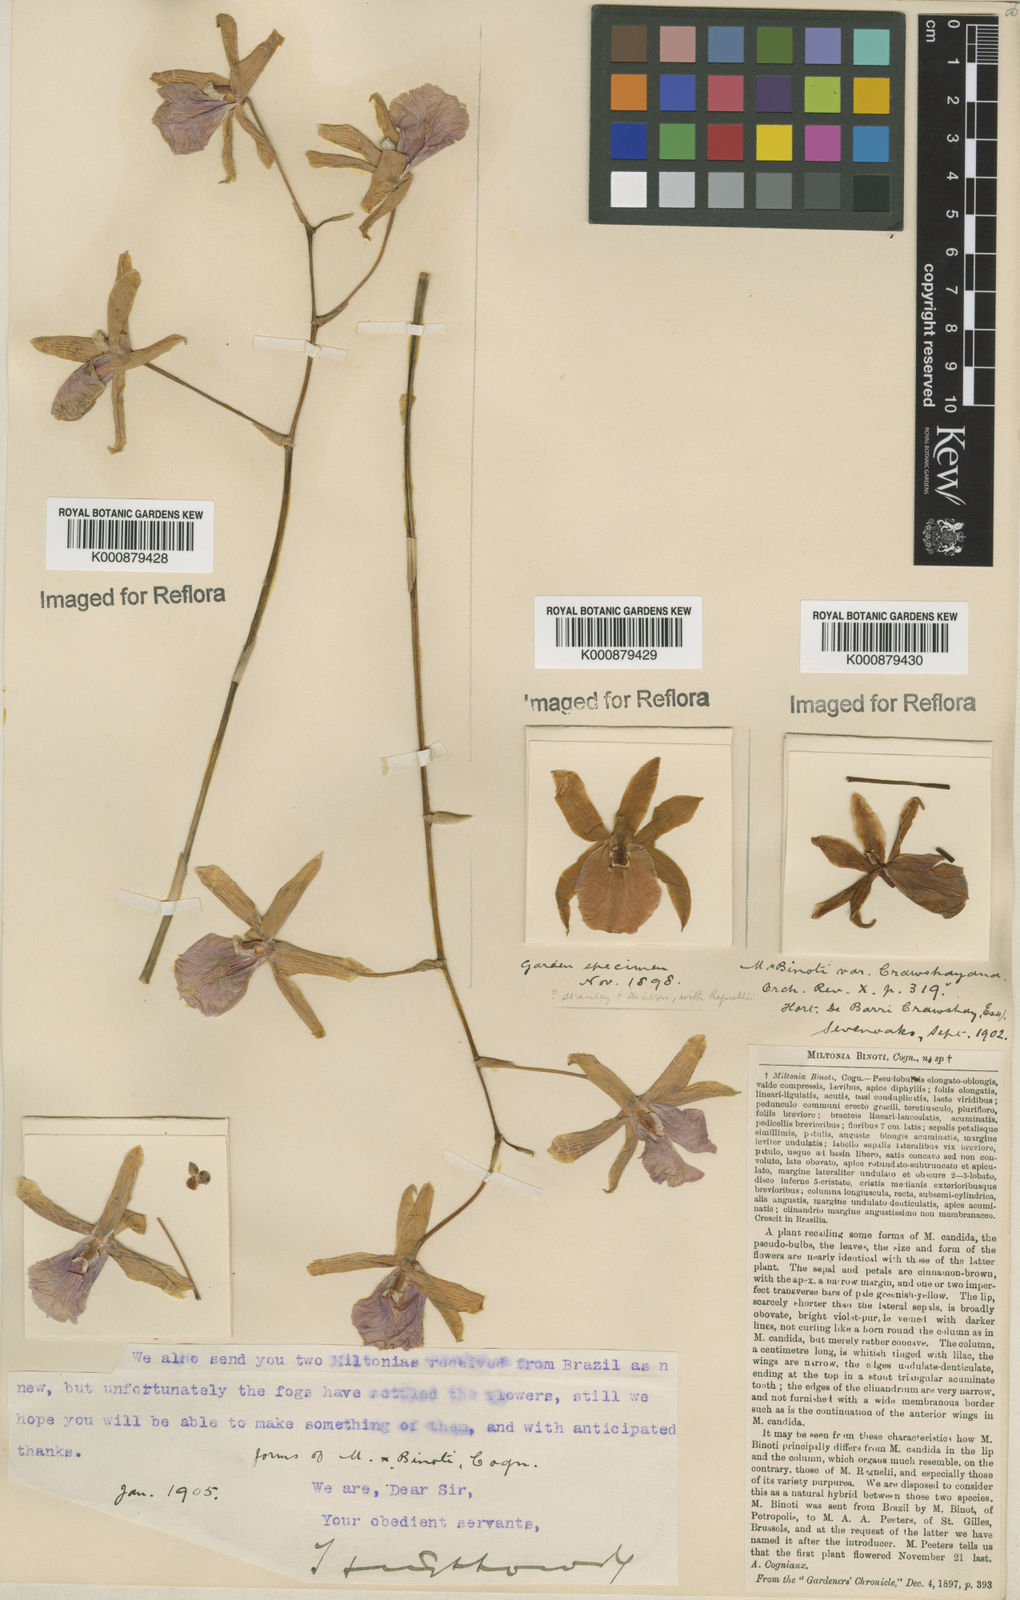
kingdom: Plantae
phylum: Tracheophyta
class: Liliopsida
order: Asparagales
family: Orchidaceae
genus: Miltonia
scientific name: Miltonia binotii
